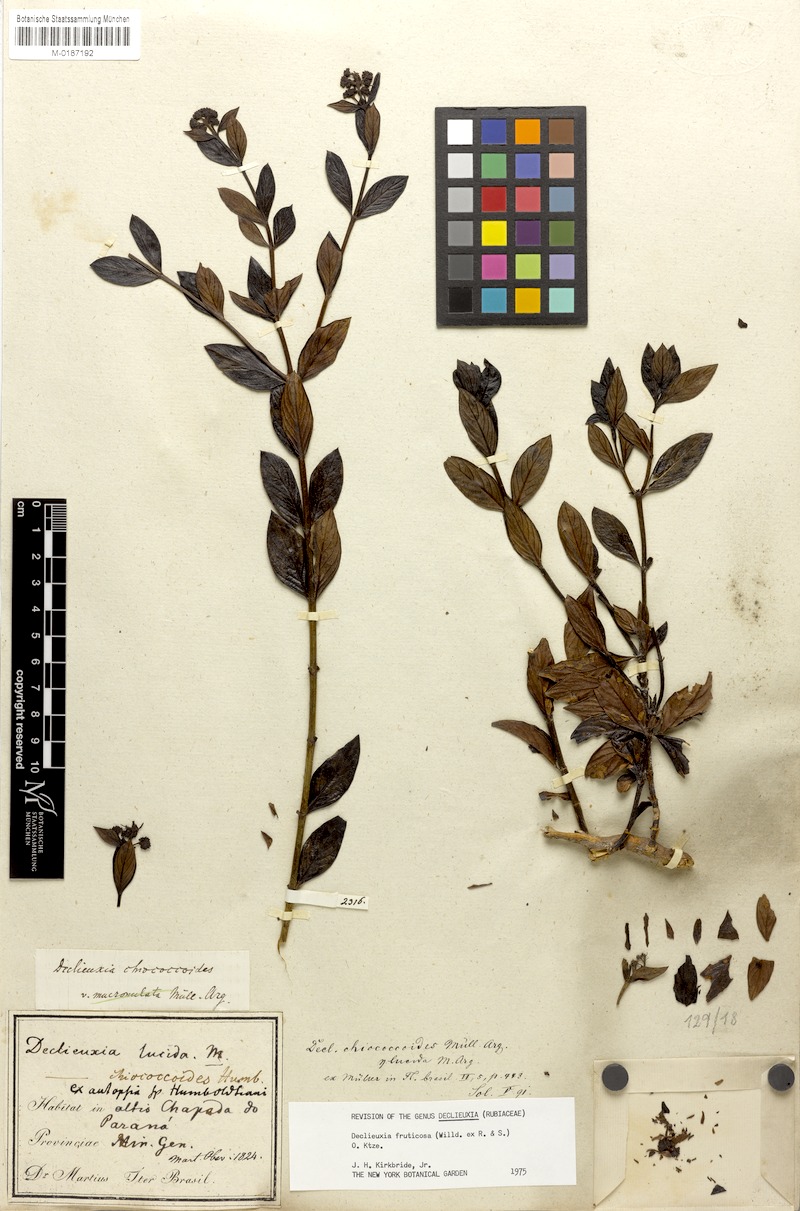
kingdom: Plantae
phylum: Tracheophyta
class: Magnoliopsida
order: Gentianales
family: Rubiaceae
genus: Declieuxia
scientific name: Declieuxia fruticosa
